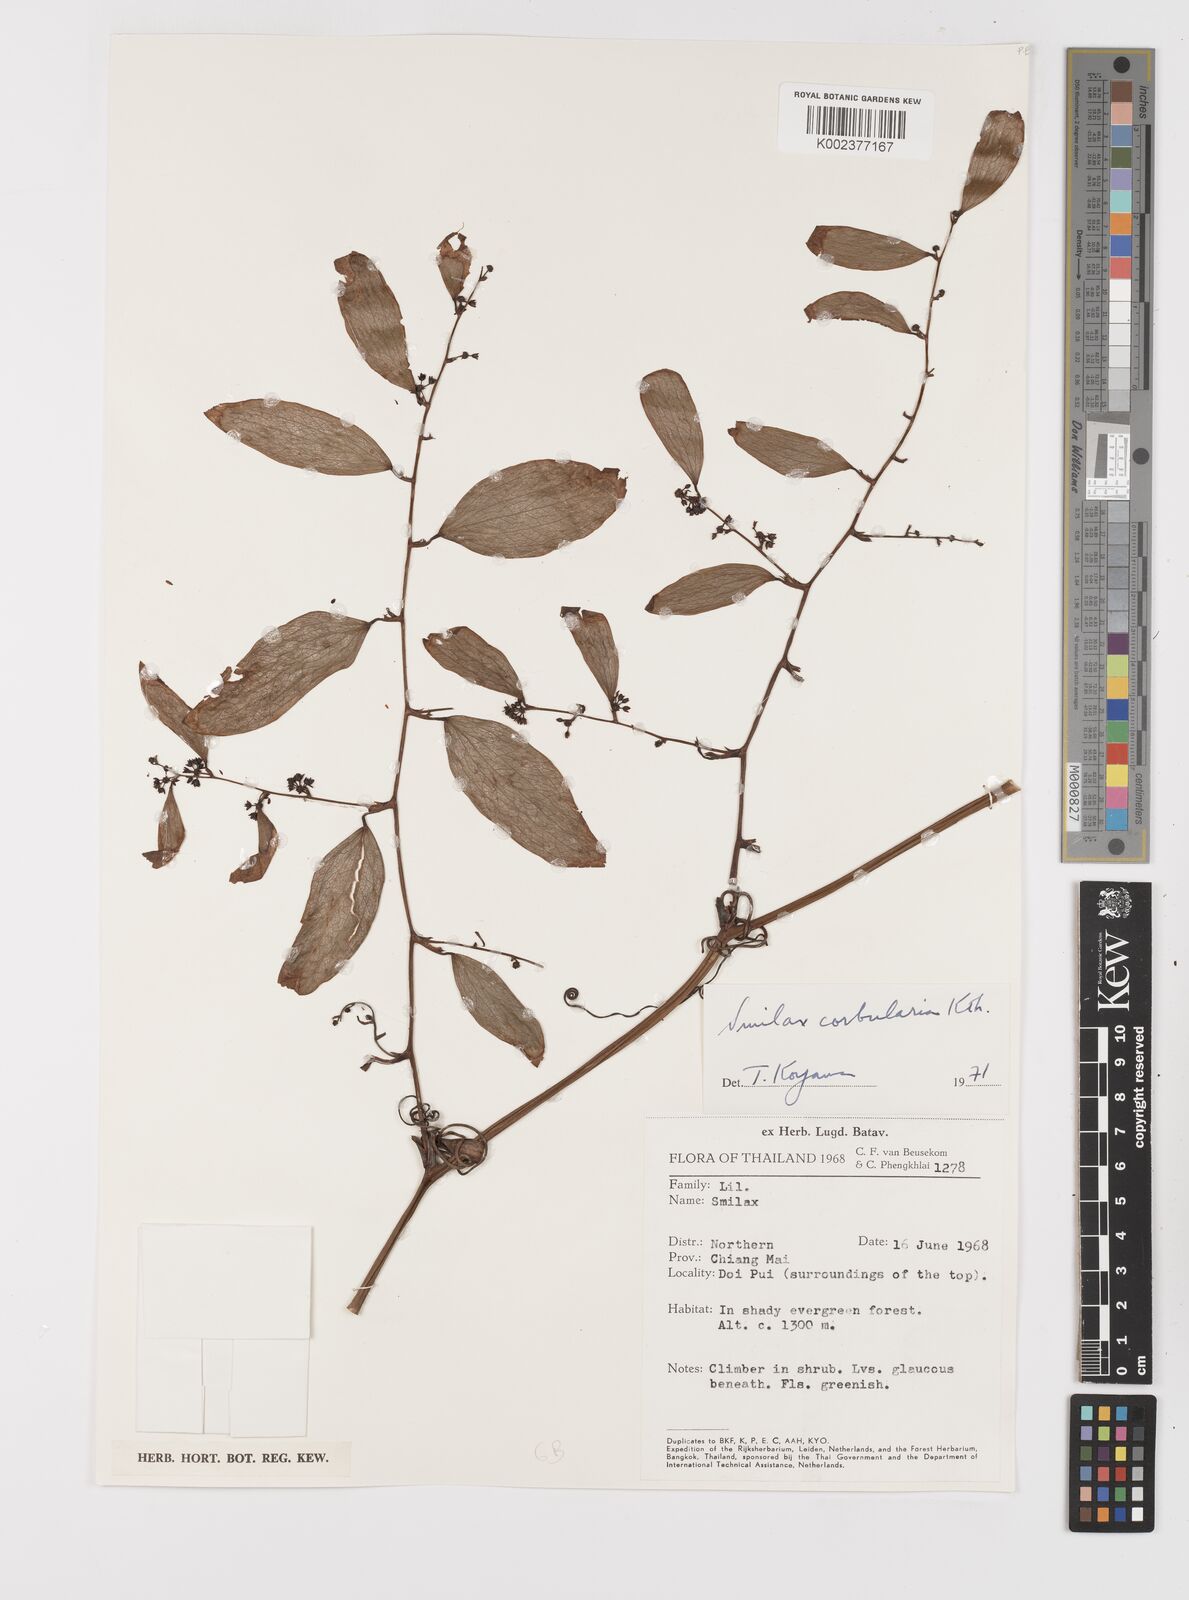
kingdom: Plantae
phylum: Tracheophyta
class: Liliopsida
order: Liliales
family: Smilacaceae
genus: Smilax
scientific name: Smilax corbularia
